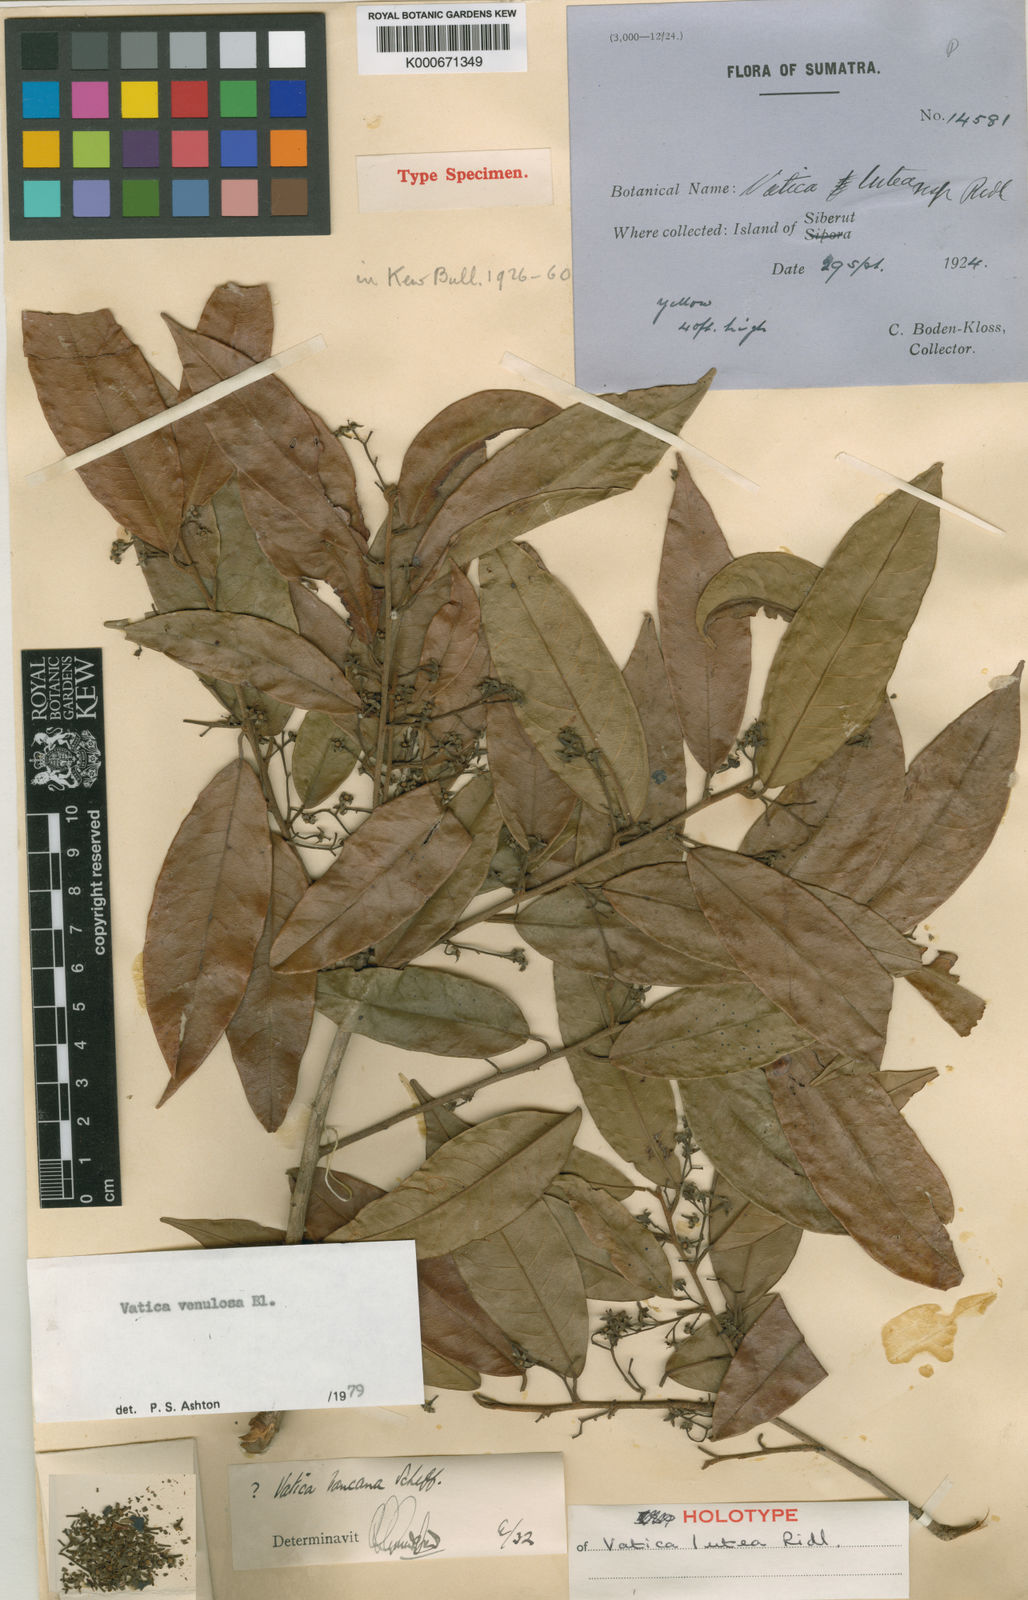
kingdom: Plantae
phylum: Tracheophyta
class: Magnoliopsida
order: Malvales
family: Dipterocarpaceae
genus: Vatica
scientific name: Vatica venulosa
